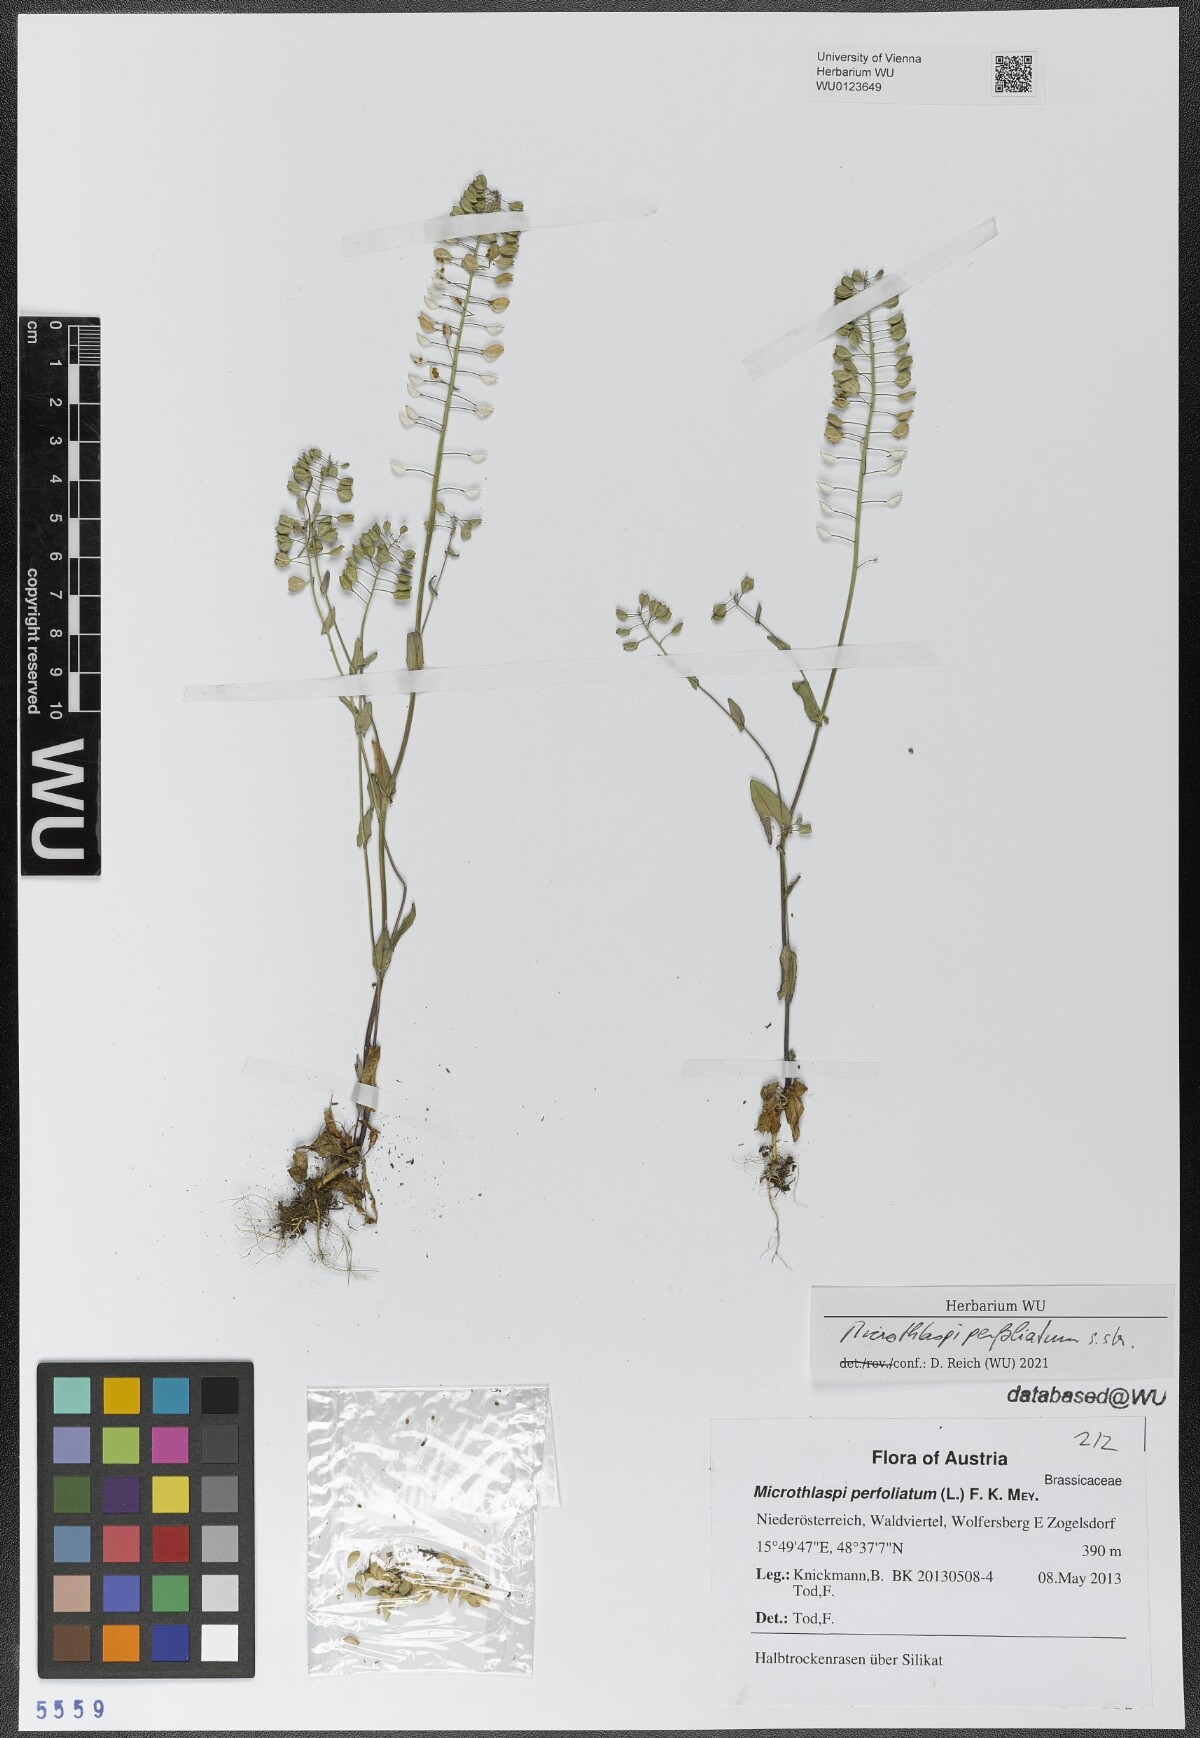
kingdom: Plantae
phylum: Tracheophyta
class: Magnoliopsida
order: Brassicales
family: Brassicaceae
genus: Noccaea
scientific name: Noccaea perfoliata
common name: Perfoliate pennycress
